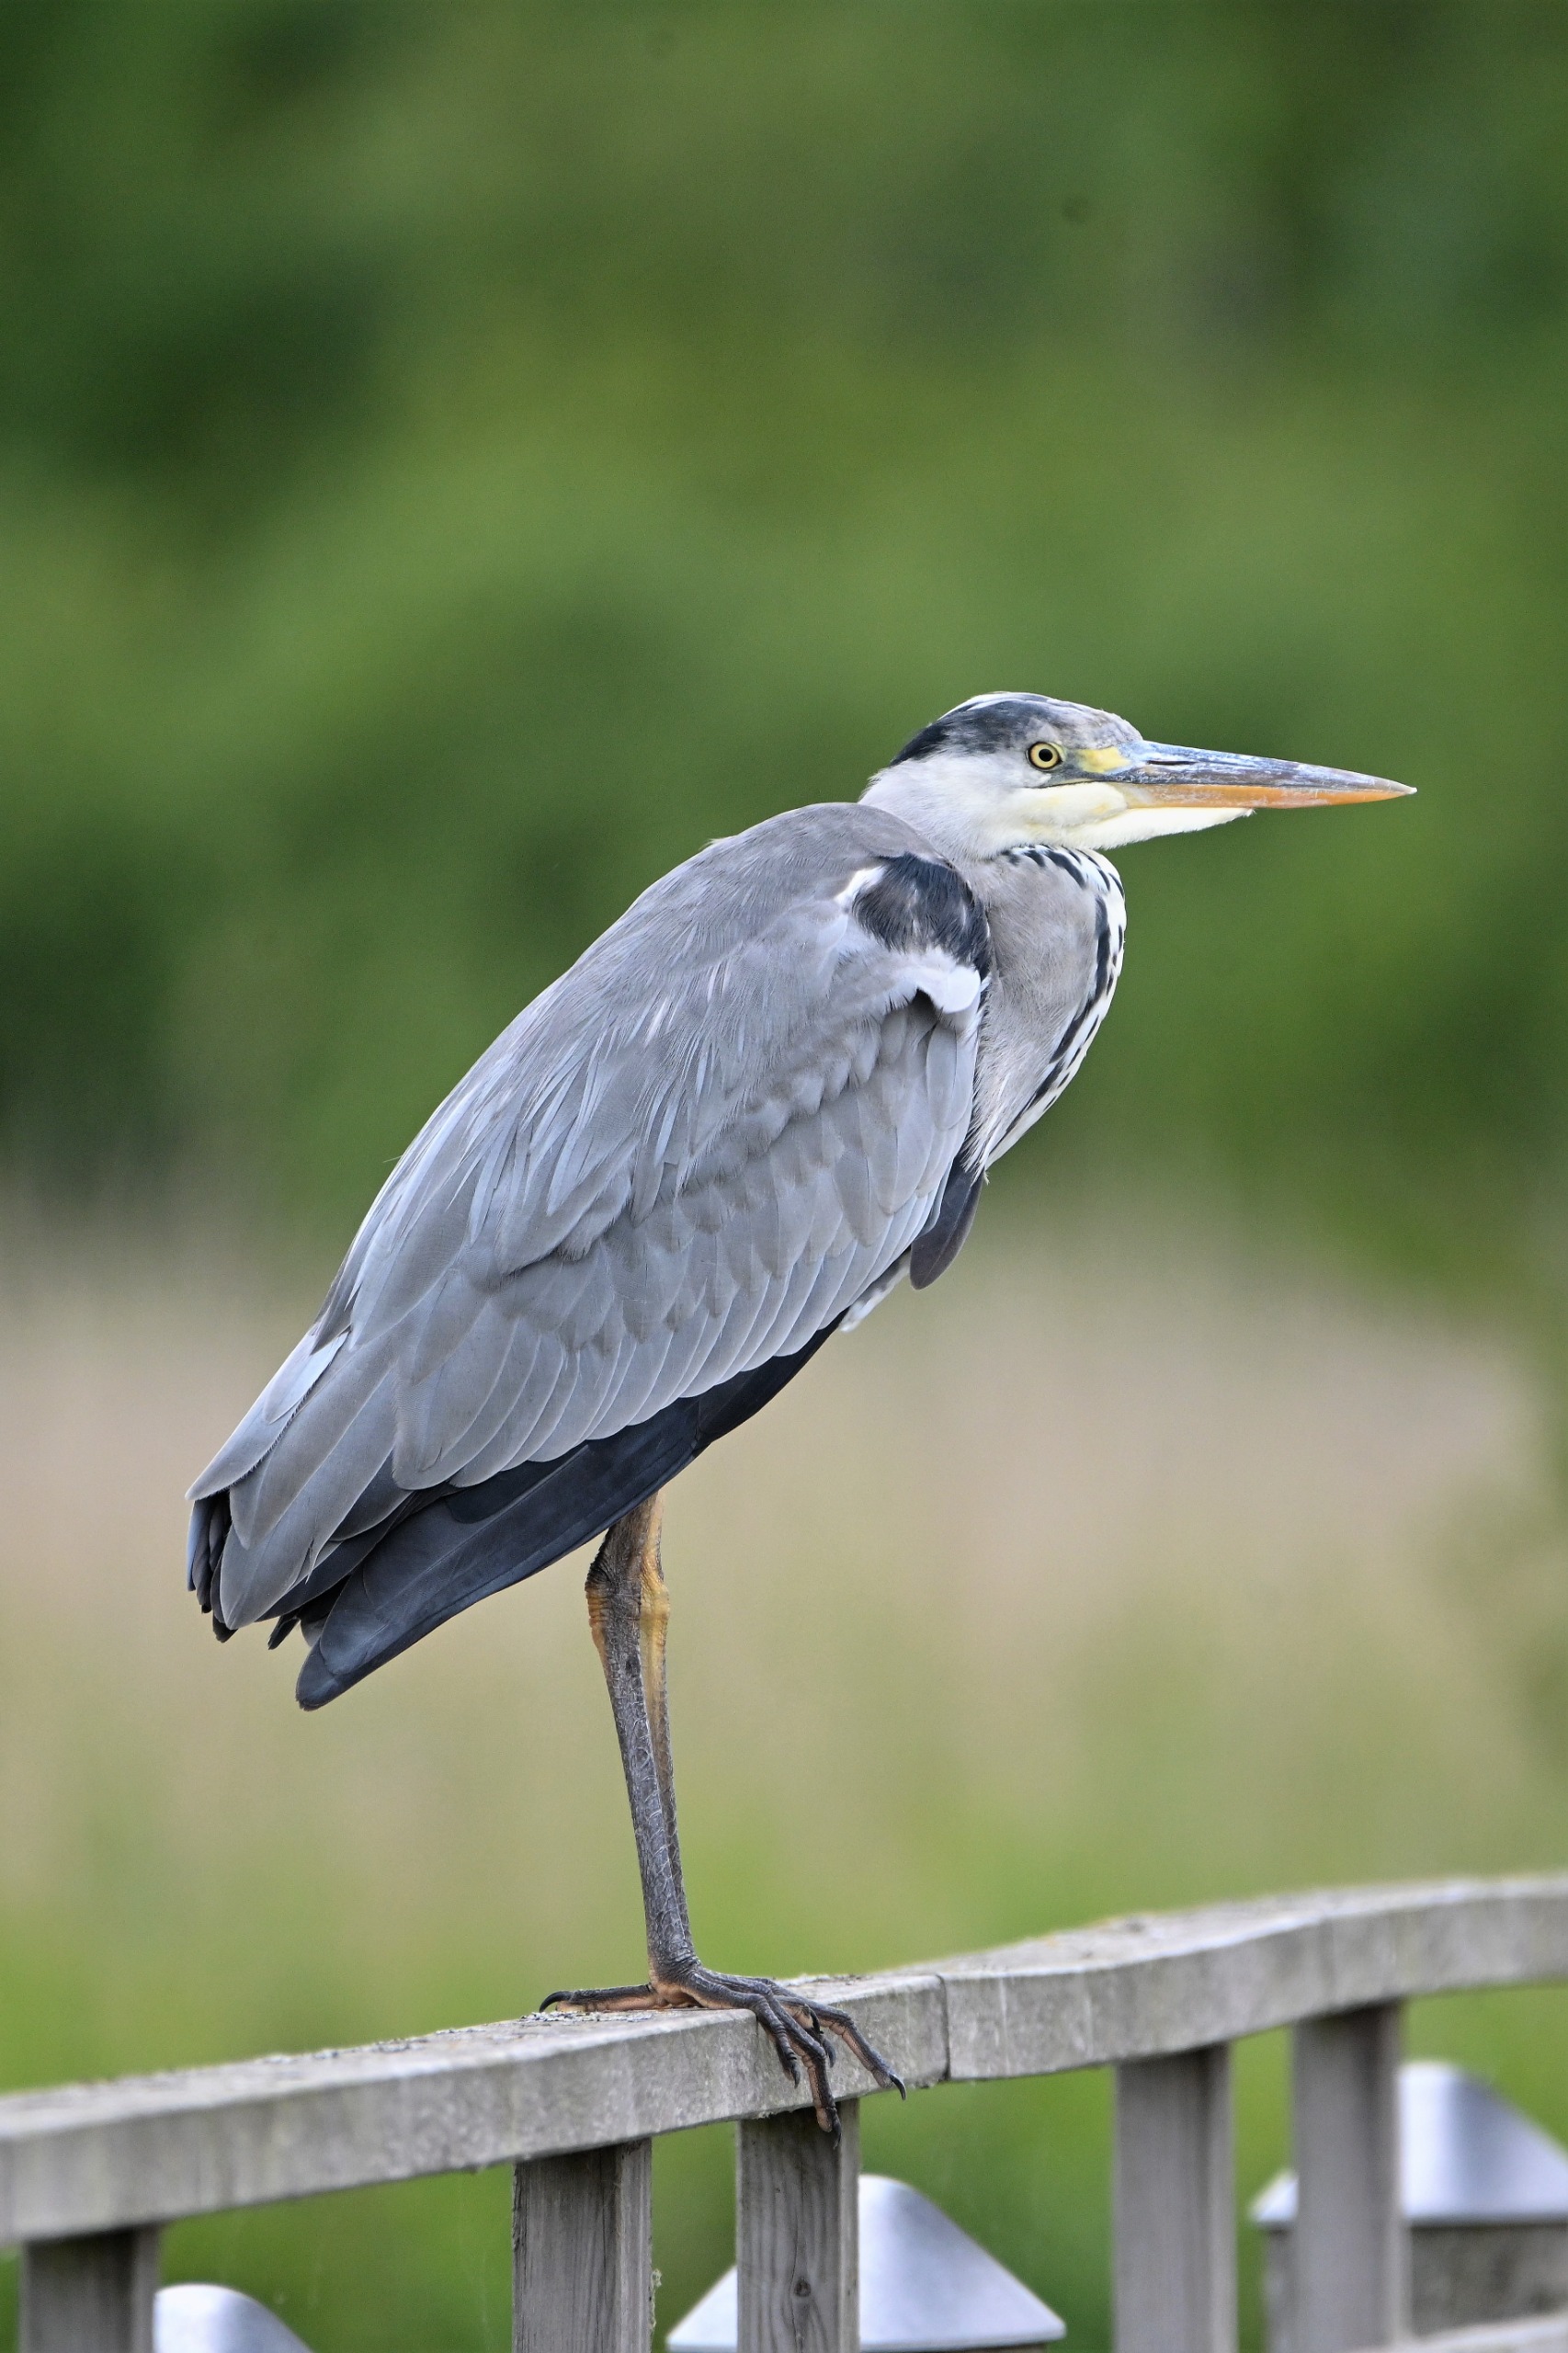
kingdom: Animalia
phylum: Chordata
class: Aves
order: Pelecaniformes
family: Ardeidae
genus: Ardea
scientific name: Ardea cinerea
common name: Fiskehejre
